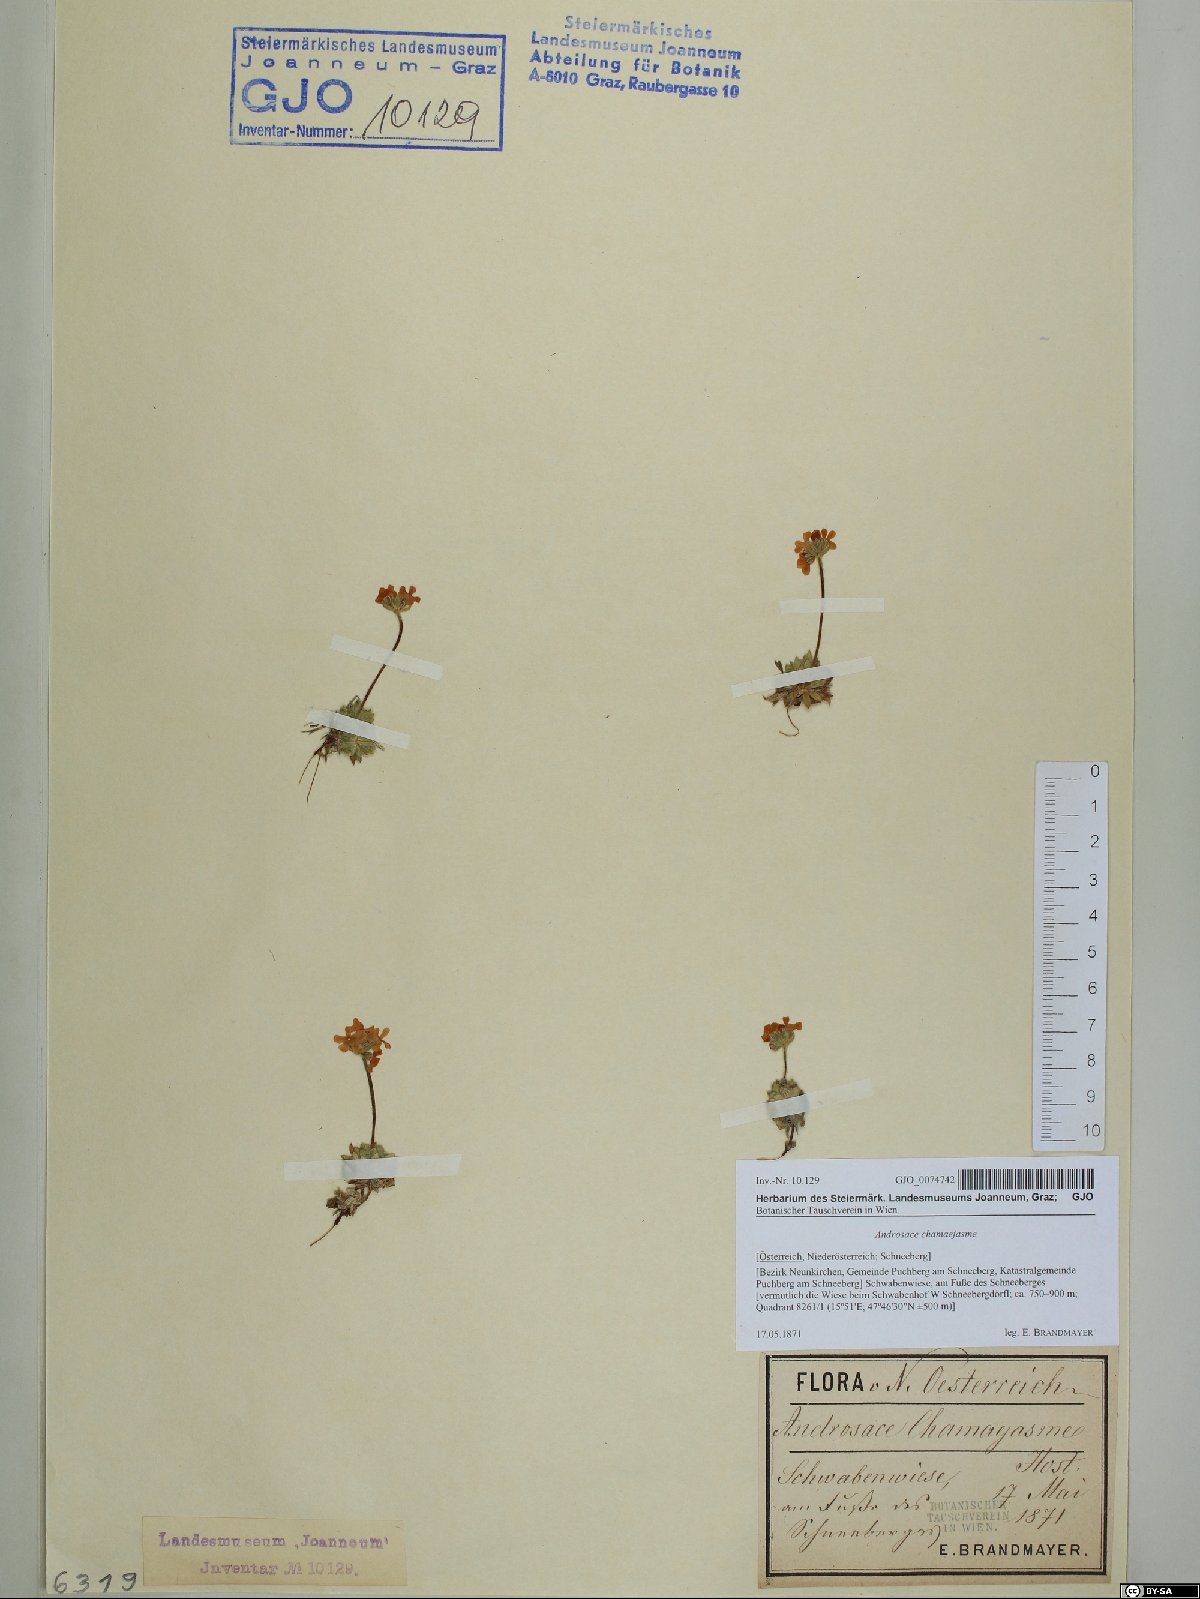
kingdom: Plantae
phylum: Tracheophyta
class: Magnoliopsida
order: Ericales
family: Primulaceae
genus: Androsace
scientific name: Androsace chamaejasme
